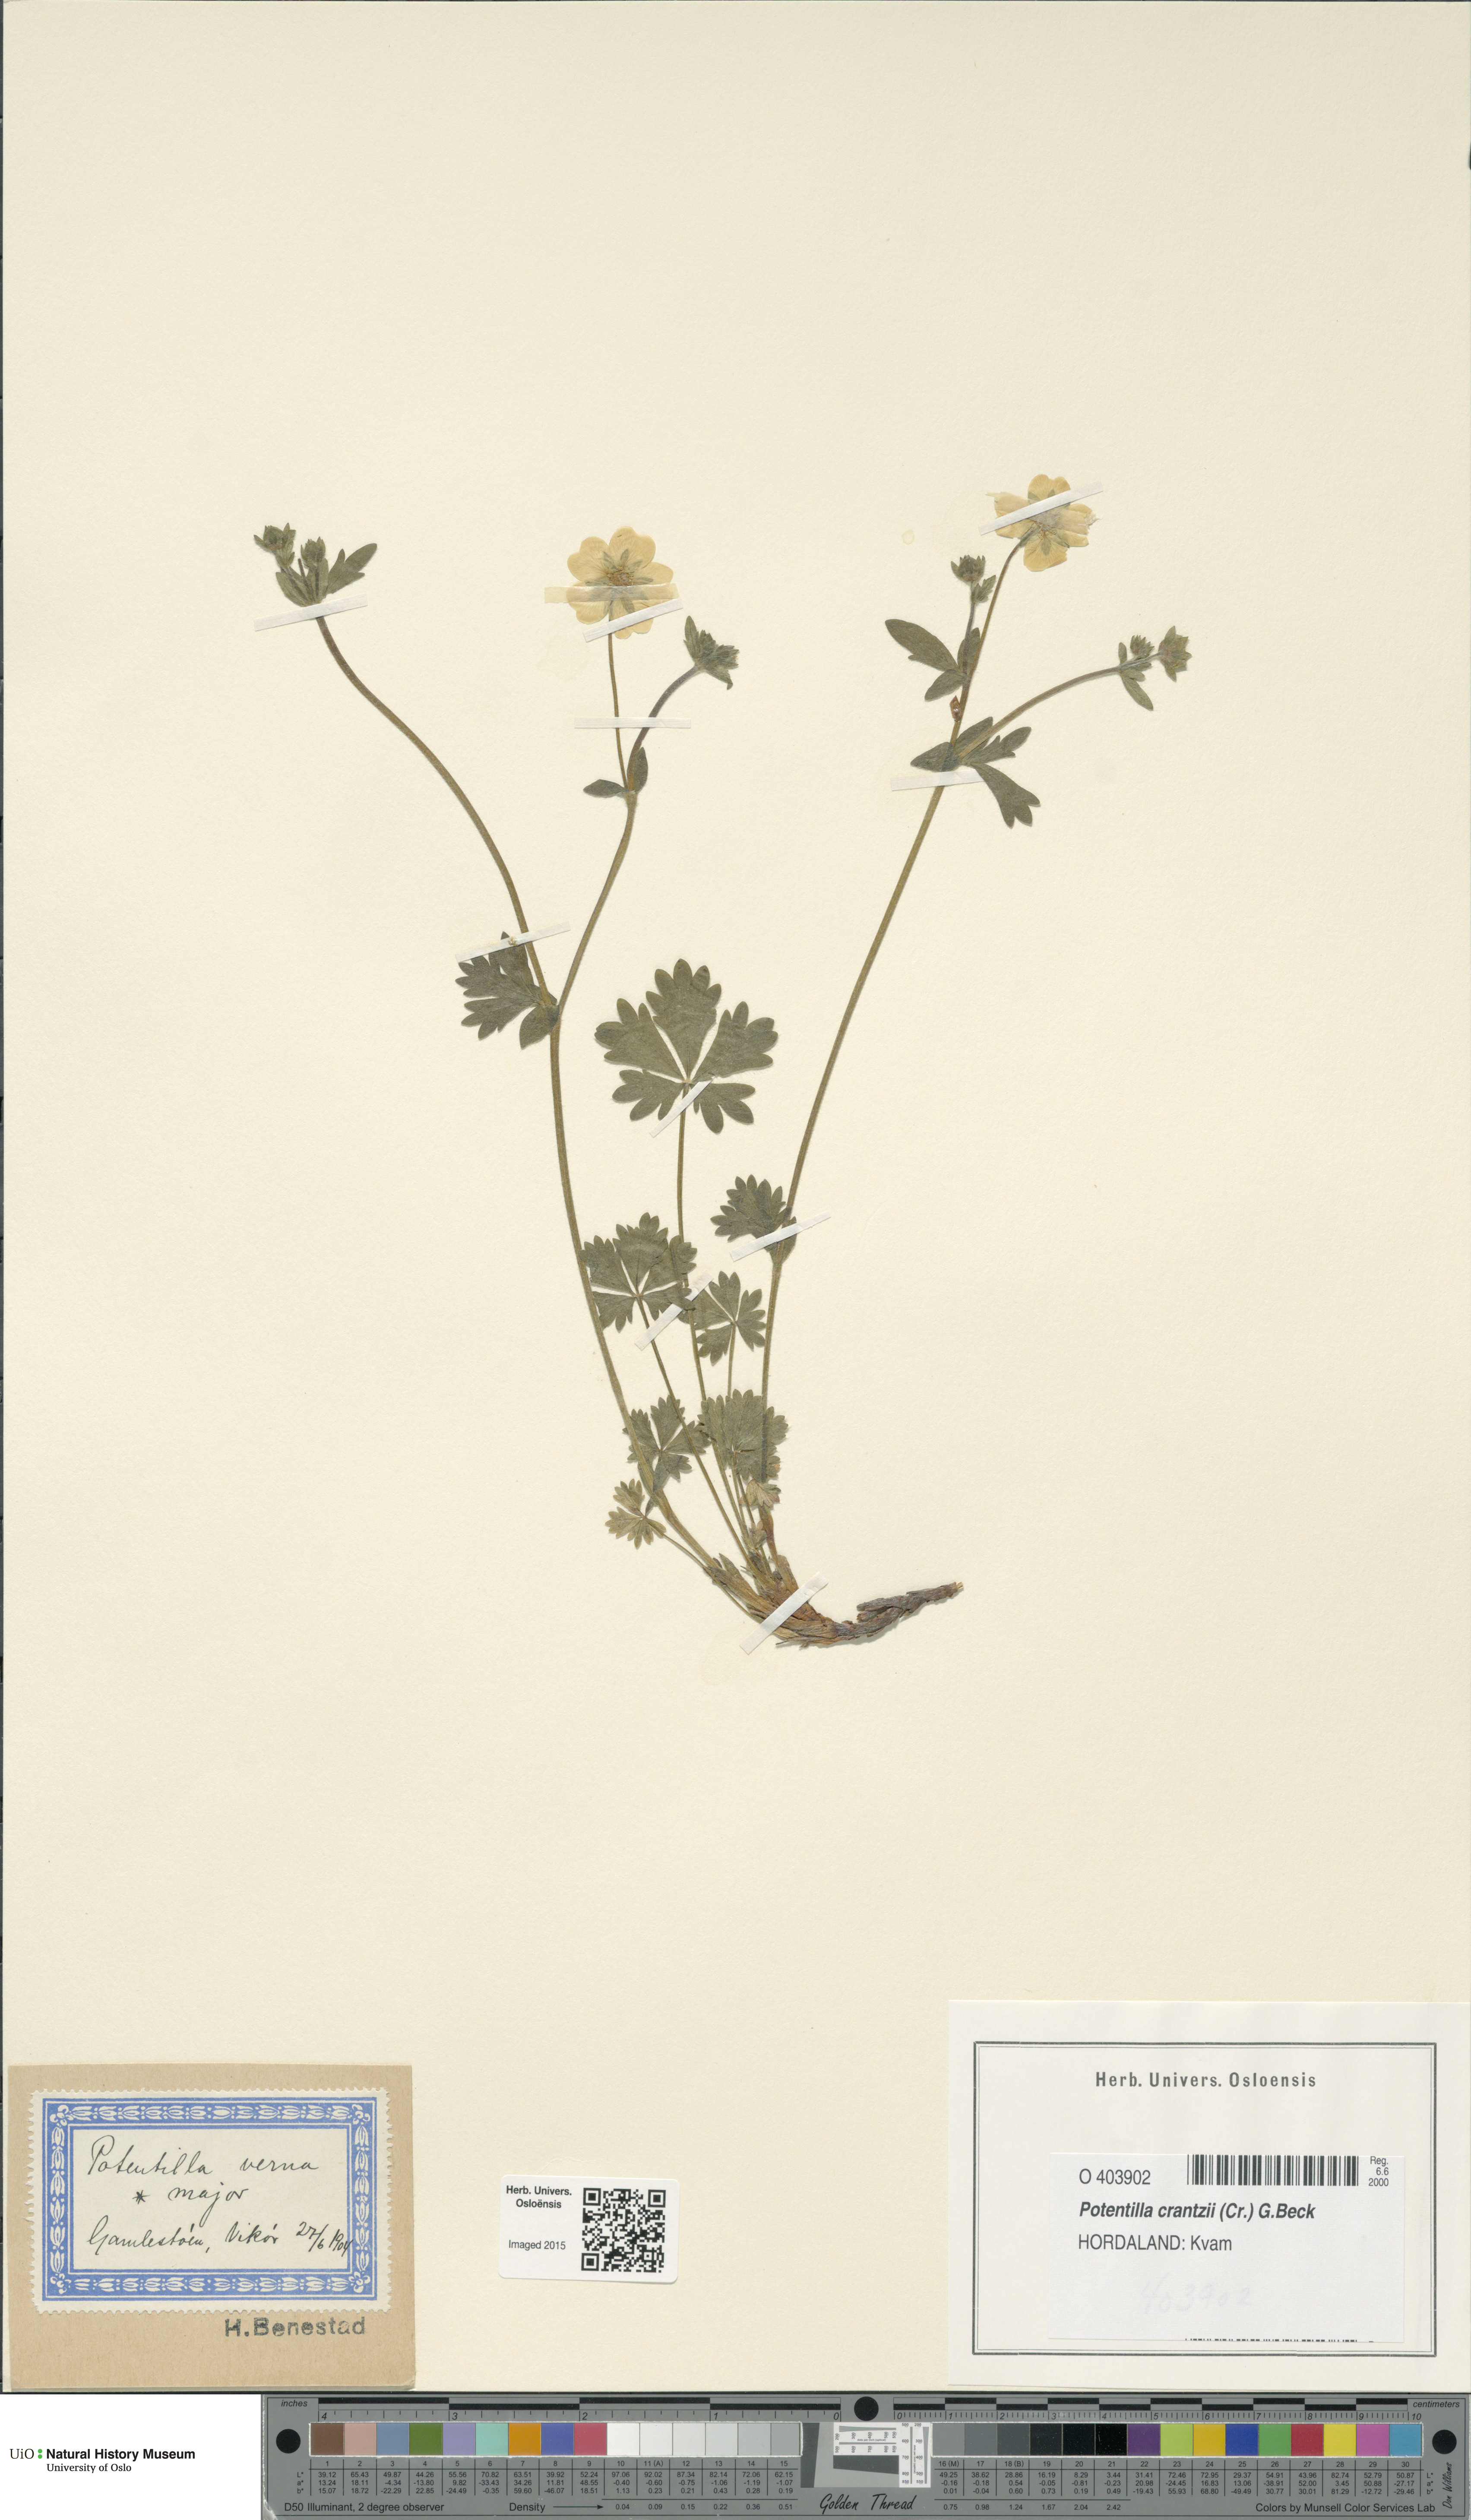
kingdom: Plantae
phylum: Tracheophyta
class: Magnoliopsida
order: Rosales
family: Rosaceae
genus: Potentilla
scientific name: Potentilla crantzii
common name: Alpine cinquefoil
